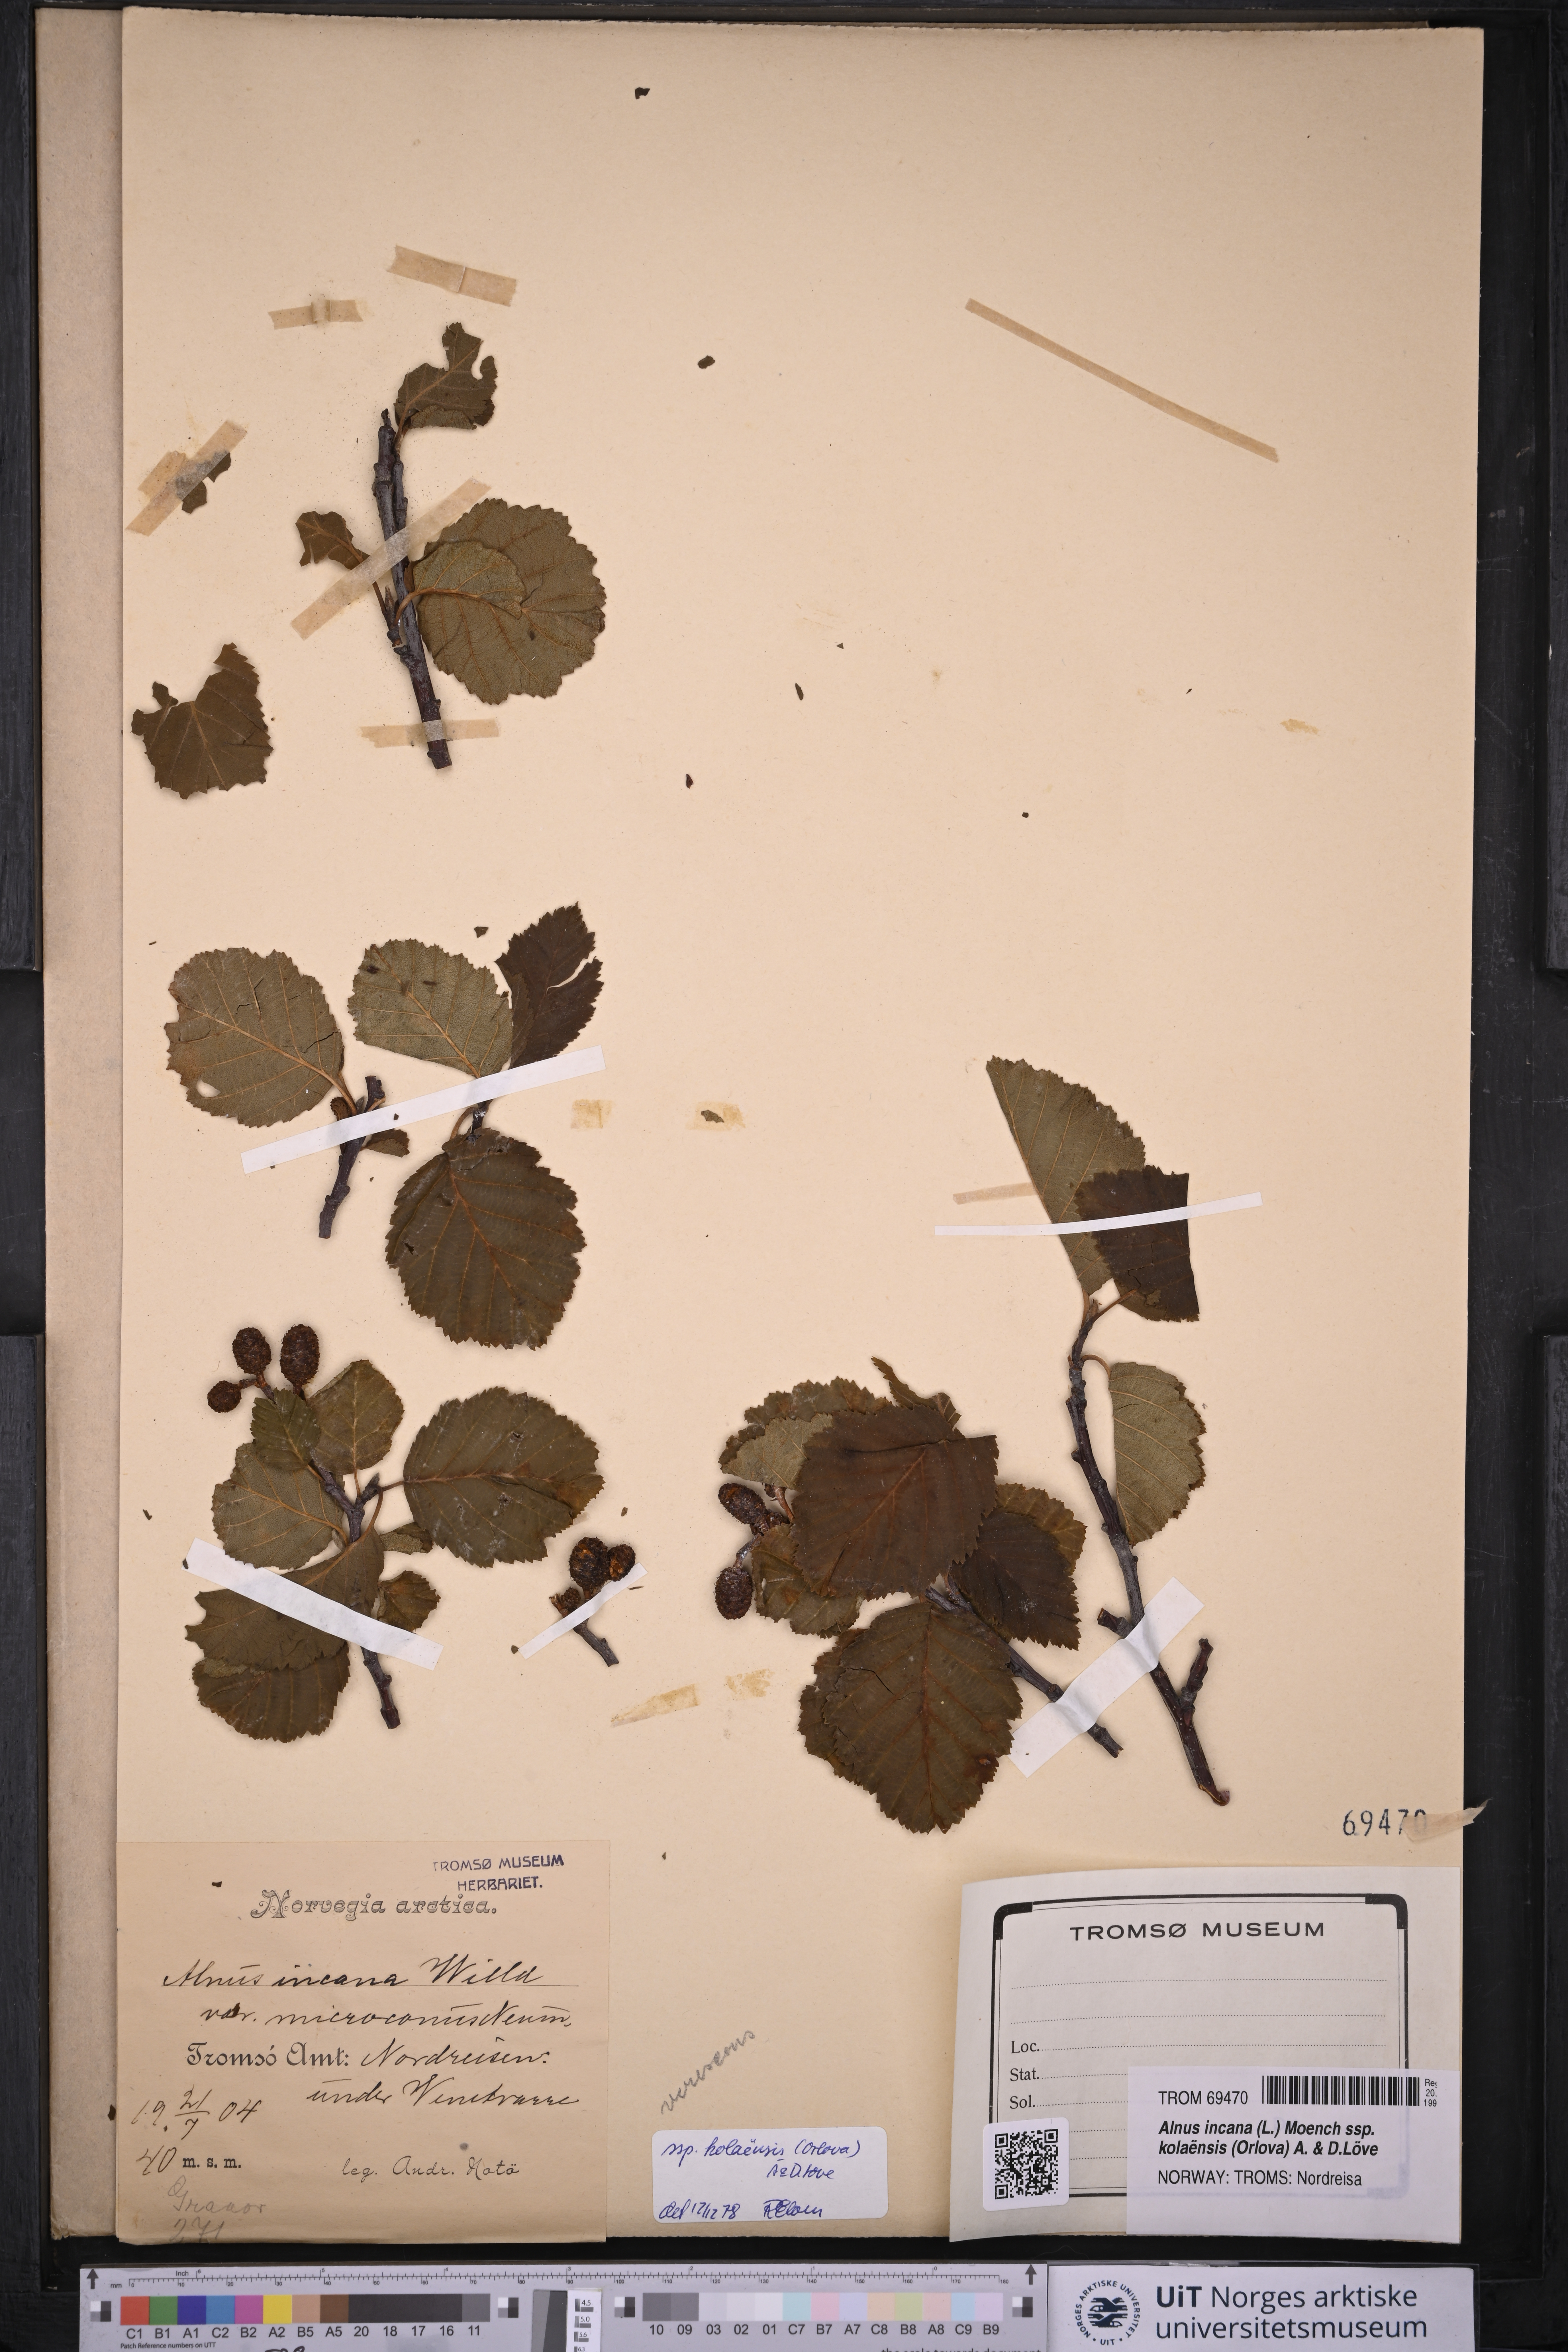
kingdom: Plantae
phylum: Tracheophyta
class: Magnoliopsida
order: Fagales
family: Betulaceae
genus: Alnus
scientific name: Alnus incana
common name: Grey alder
